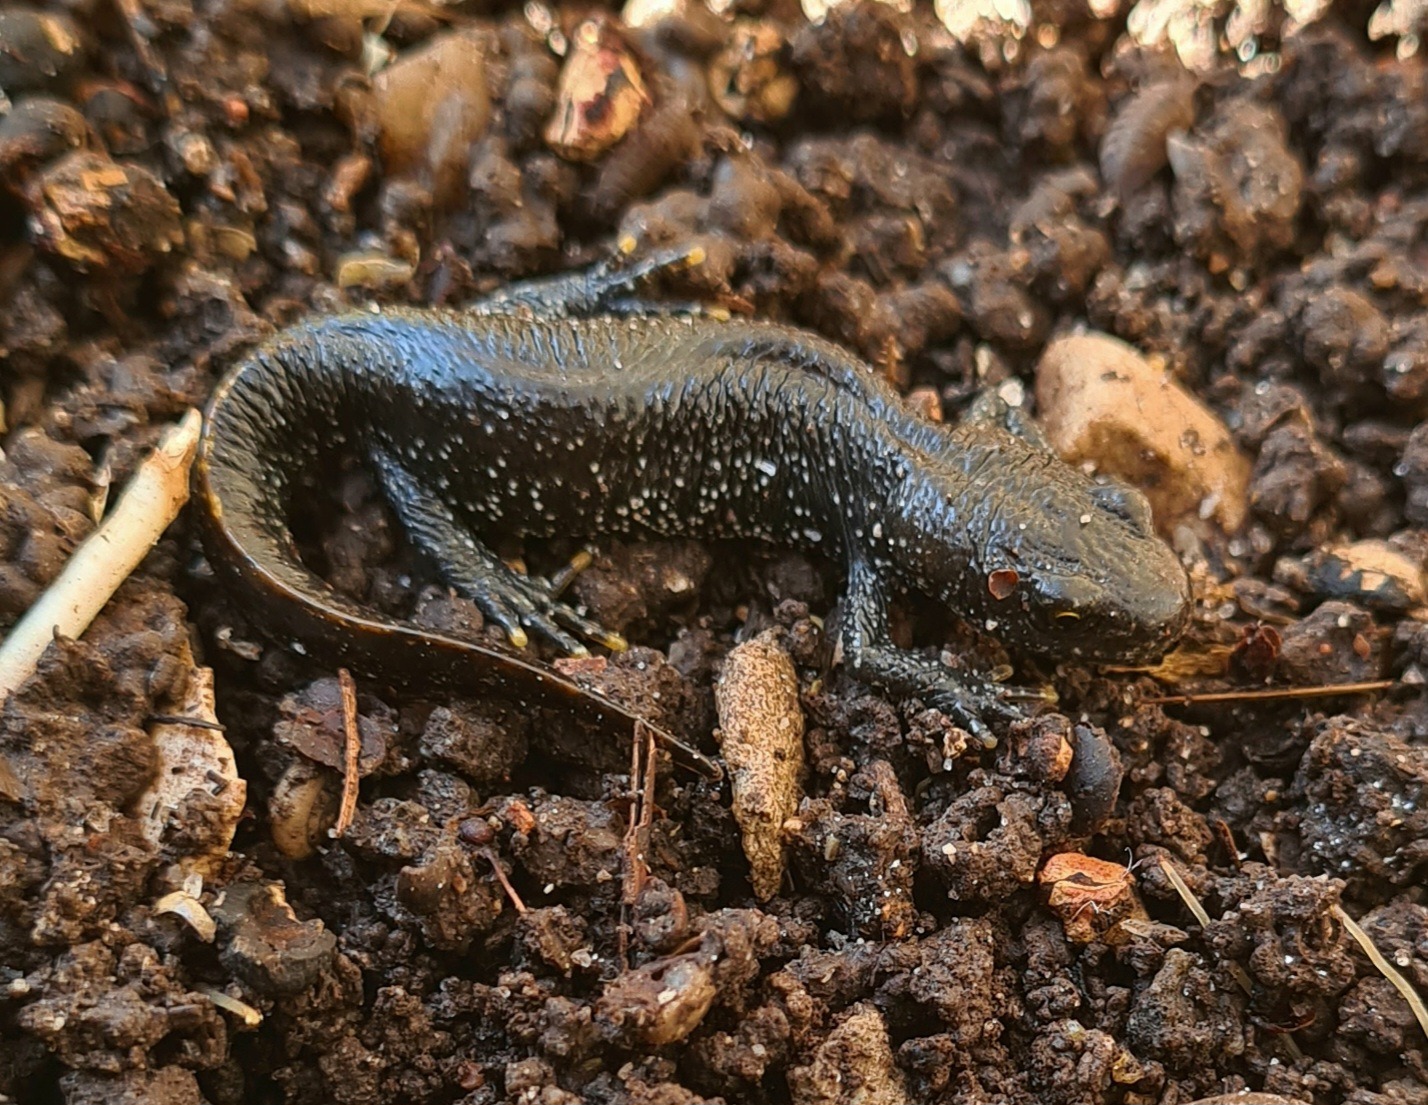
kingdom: Animalia
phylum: Chordata
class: Amphibia
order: Caudata
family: Salamandridae
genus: Triturus
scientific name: Triturus cristatus
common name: Stor vandsalamander
